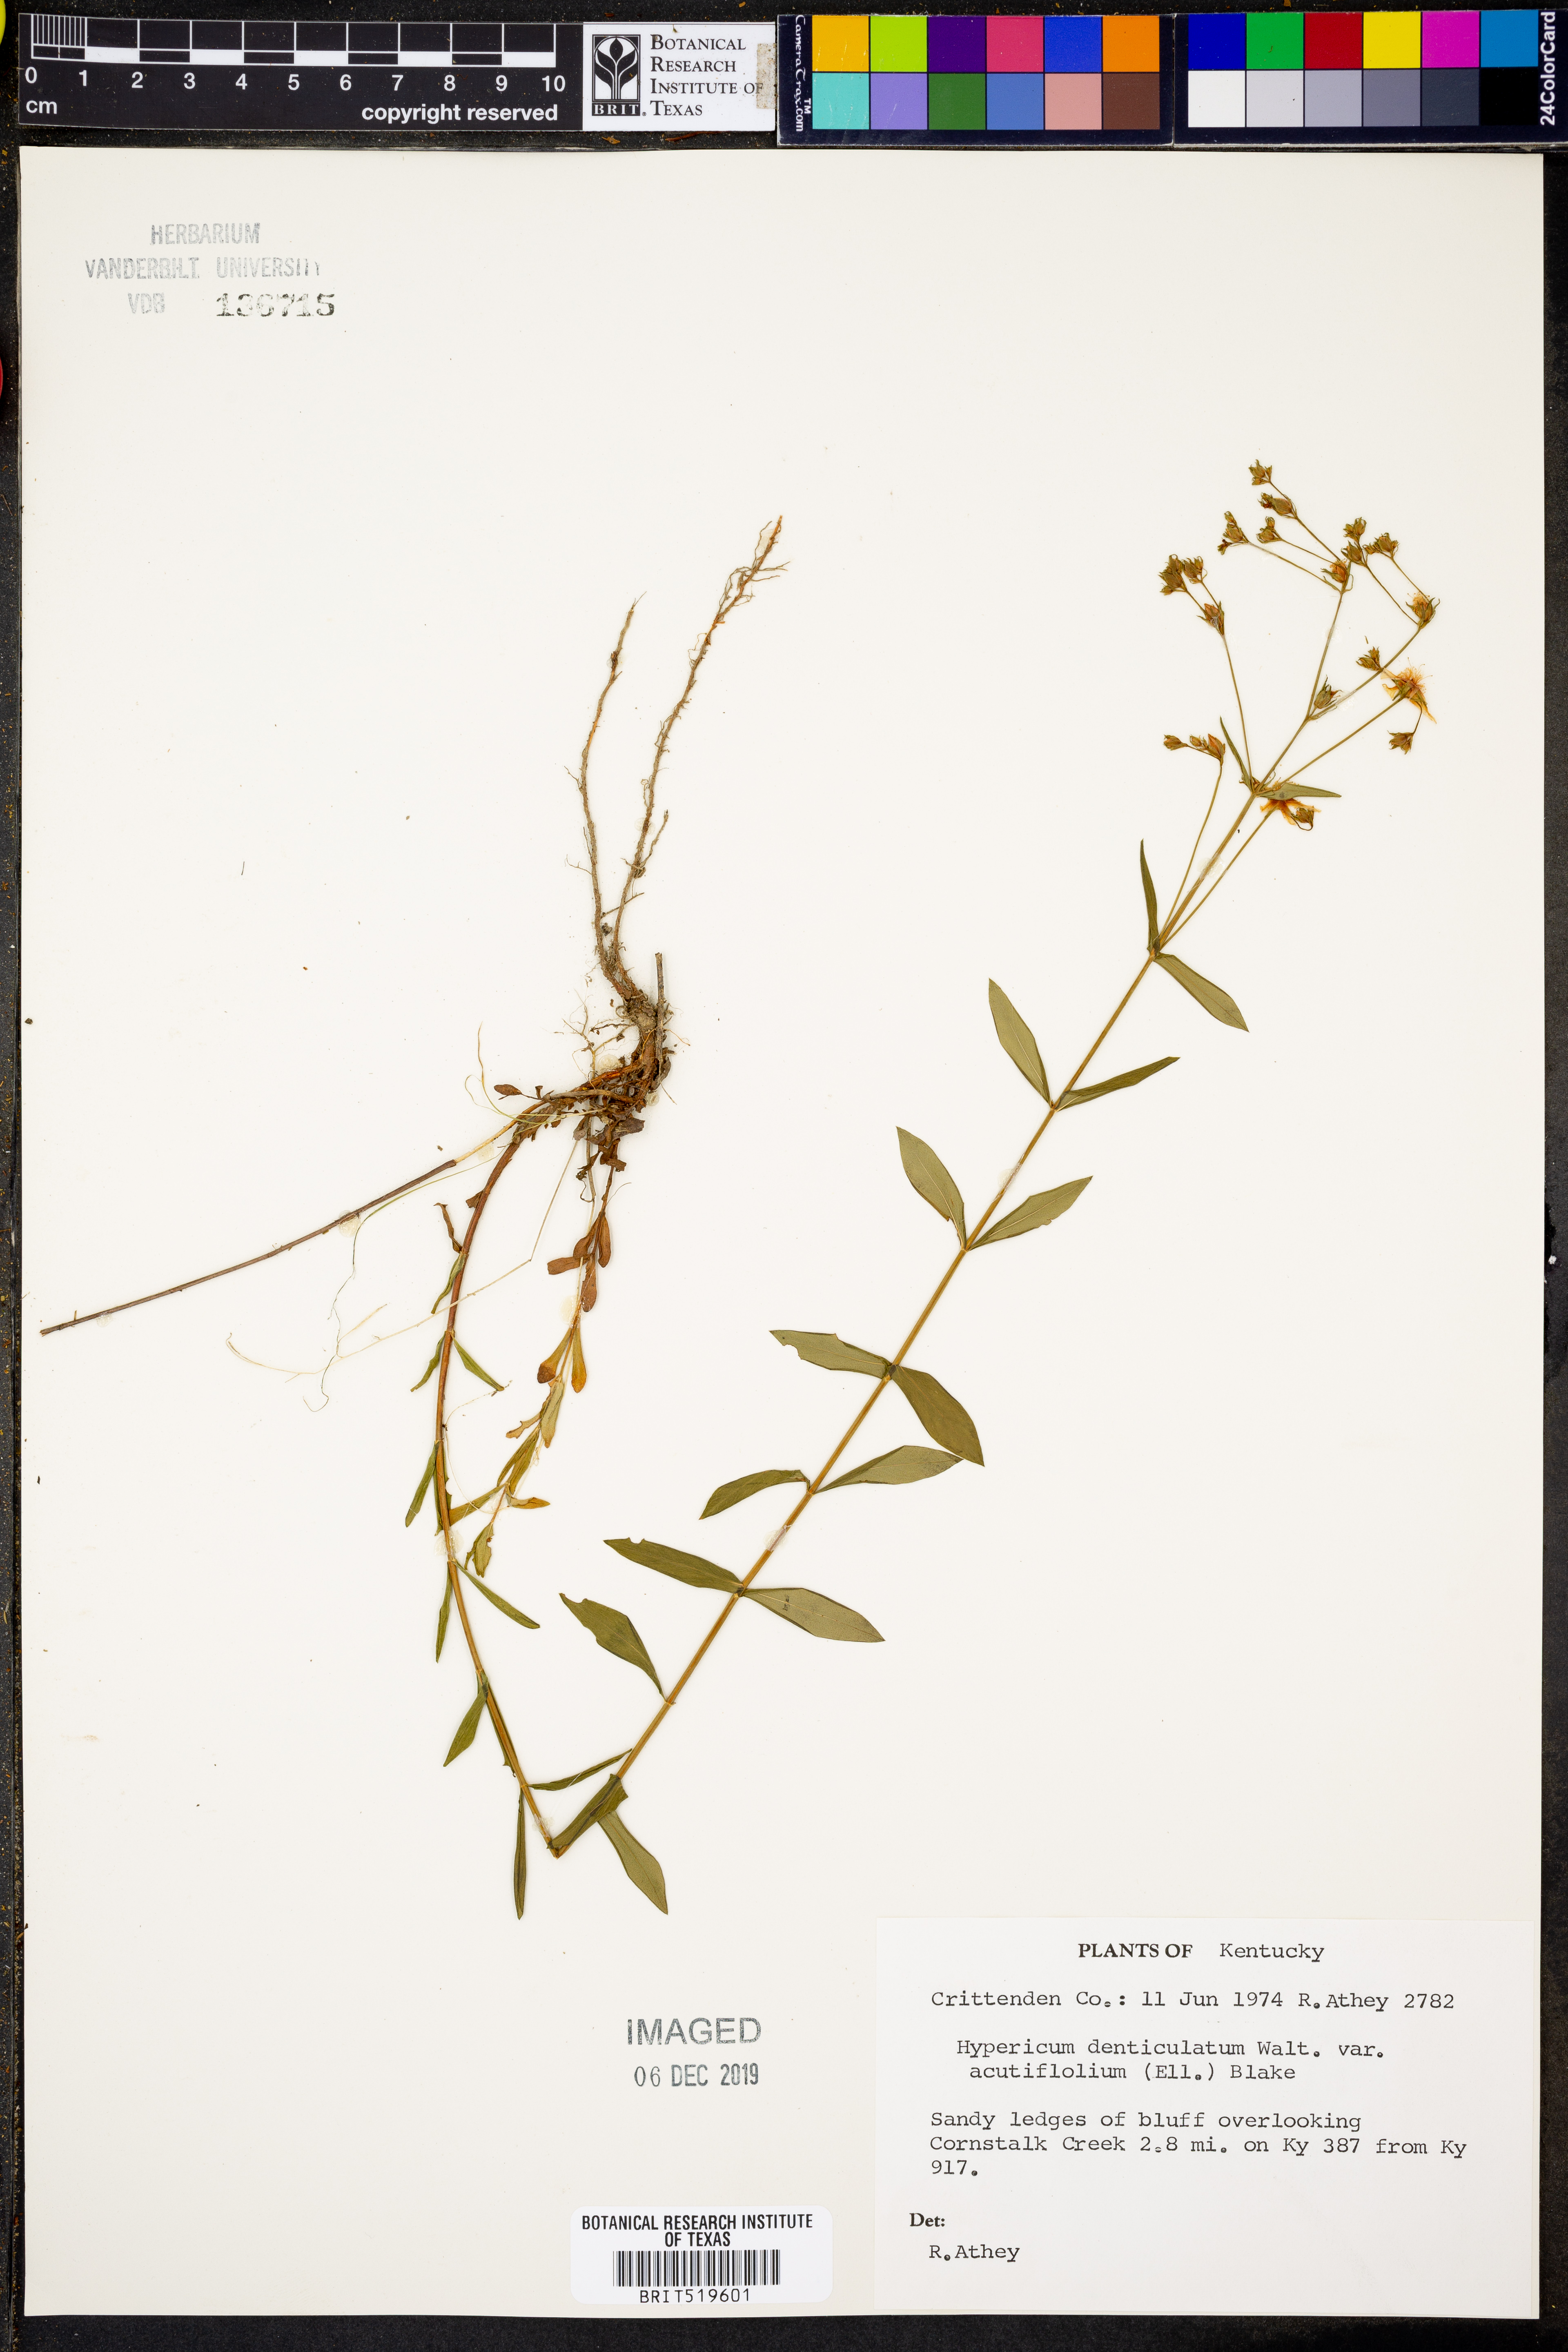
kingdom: Plantae
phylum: Tracheophyta
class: Magnoliopsida
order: Malpighiales
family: Hypericaceae
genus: Hypericum
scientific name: Hypericum erythraeae
